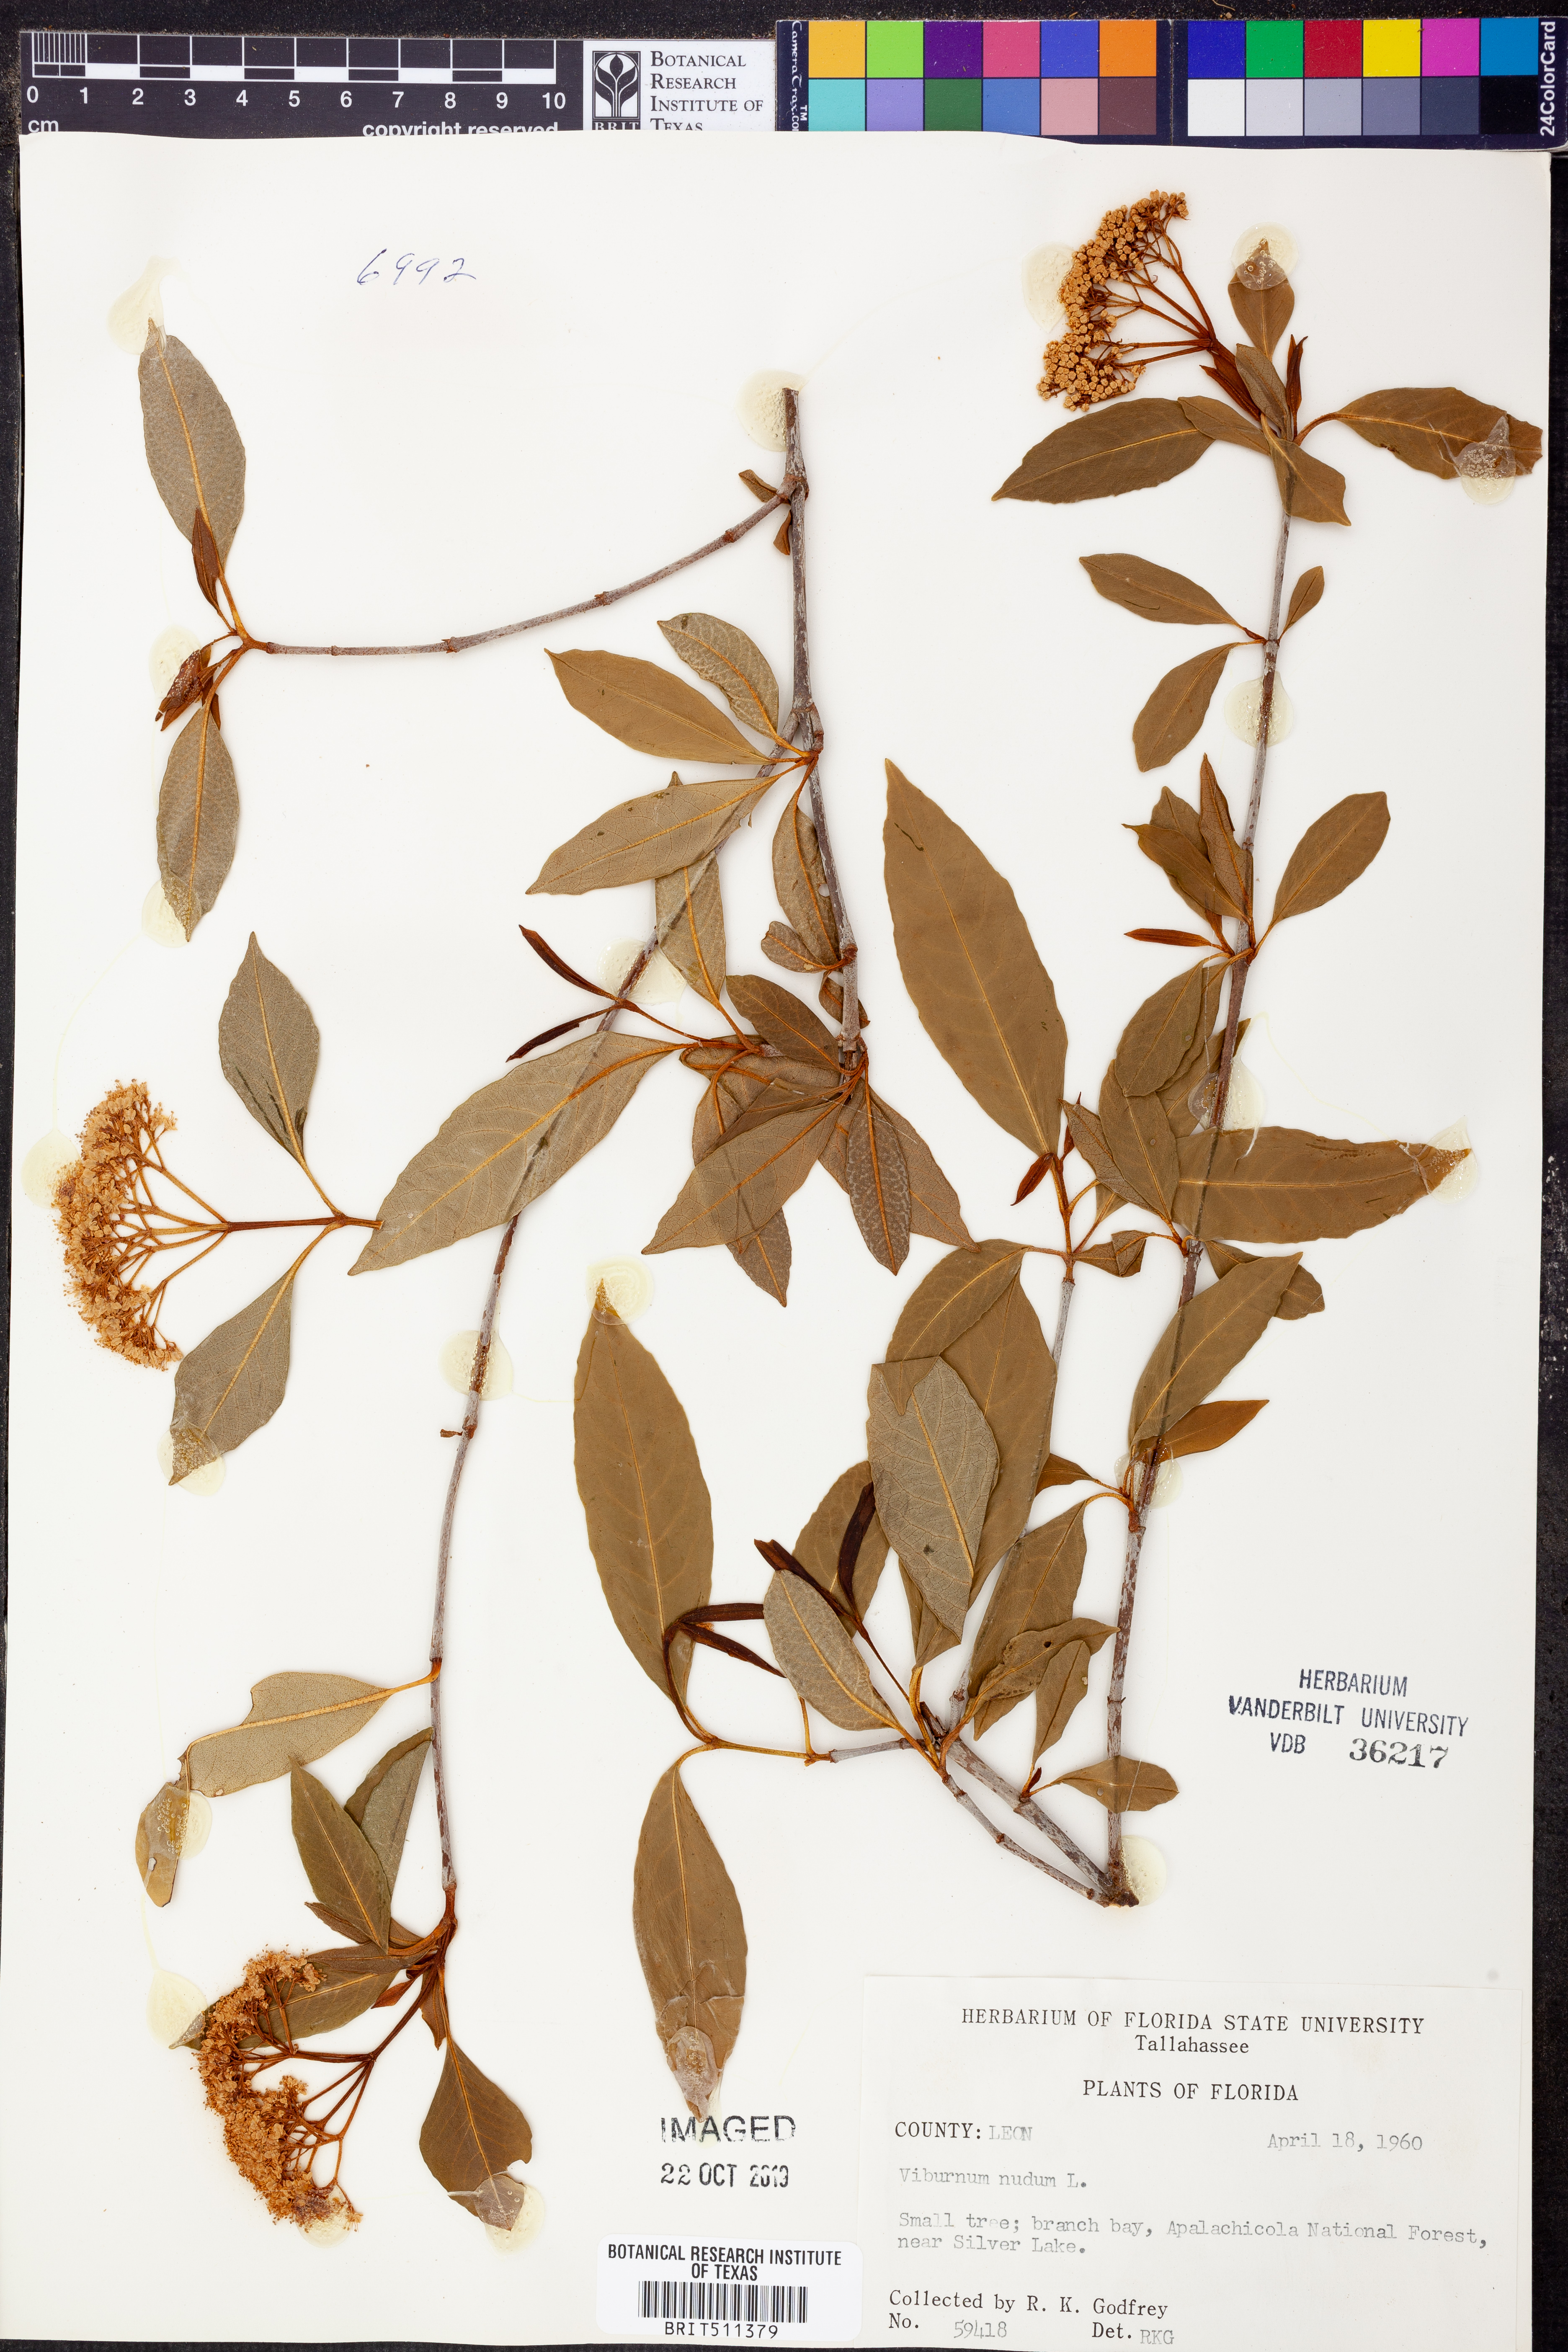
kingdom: Plantae
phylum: Tracheophyta
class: Magnoliopsida
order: Dipsacales
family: Viburnaceae
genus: Viburnum
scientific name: Viburnum nudum
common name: Possum haw
